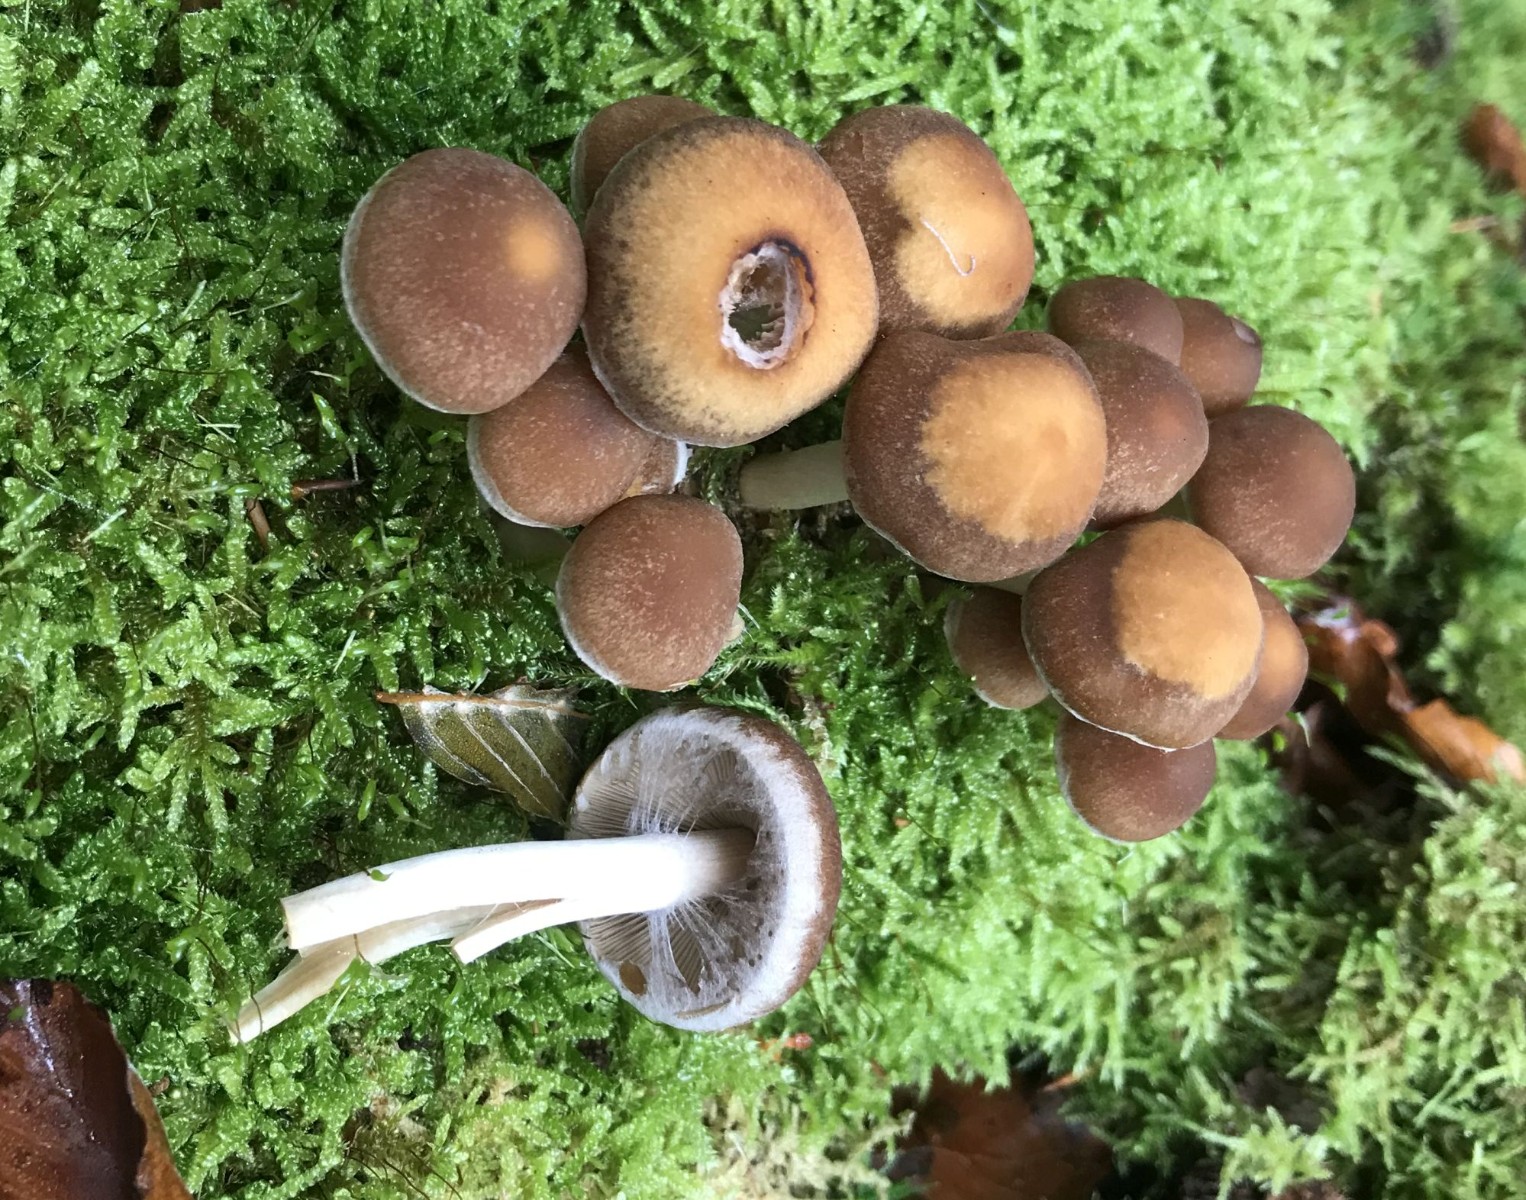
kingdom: Fungi
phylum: Basidiomycota
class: Agaricomycetes
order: Agaricales
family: Psathyrellaceae
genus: Psathyrella
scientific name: Psathyrella piluliformis
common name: lysstokket mørkhat
